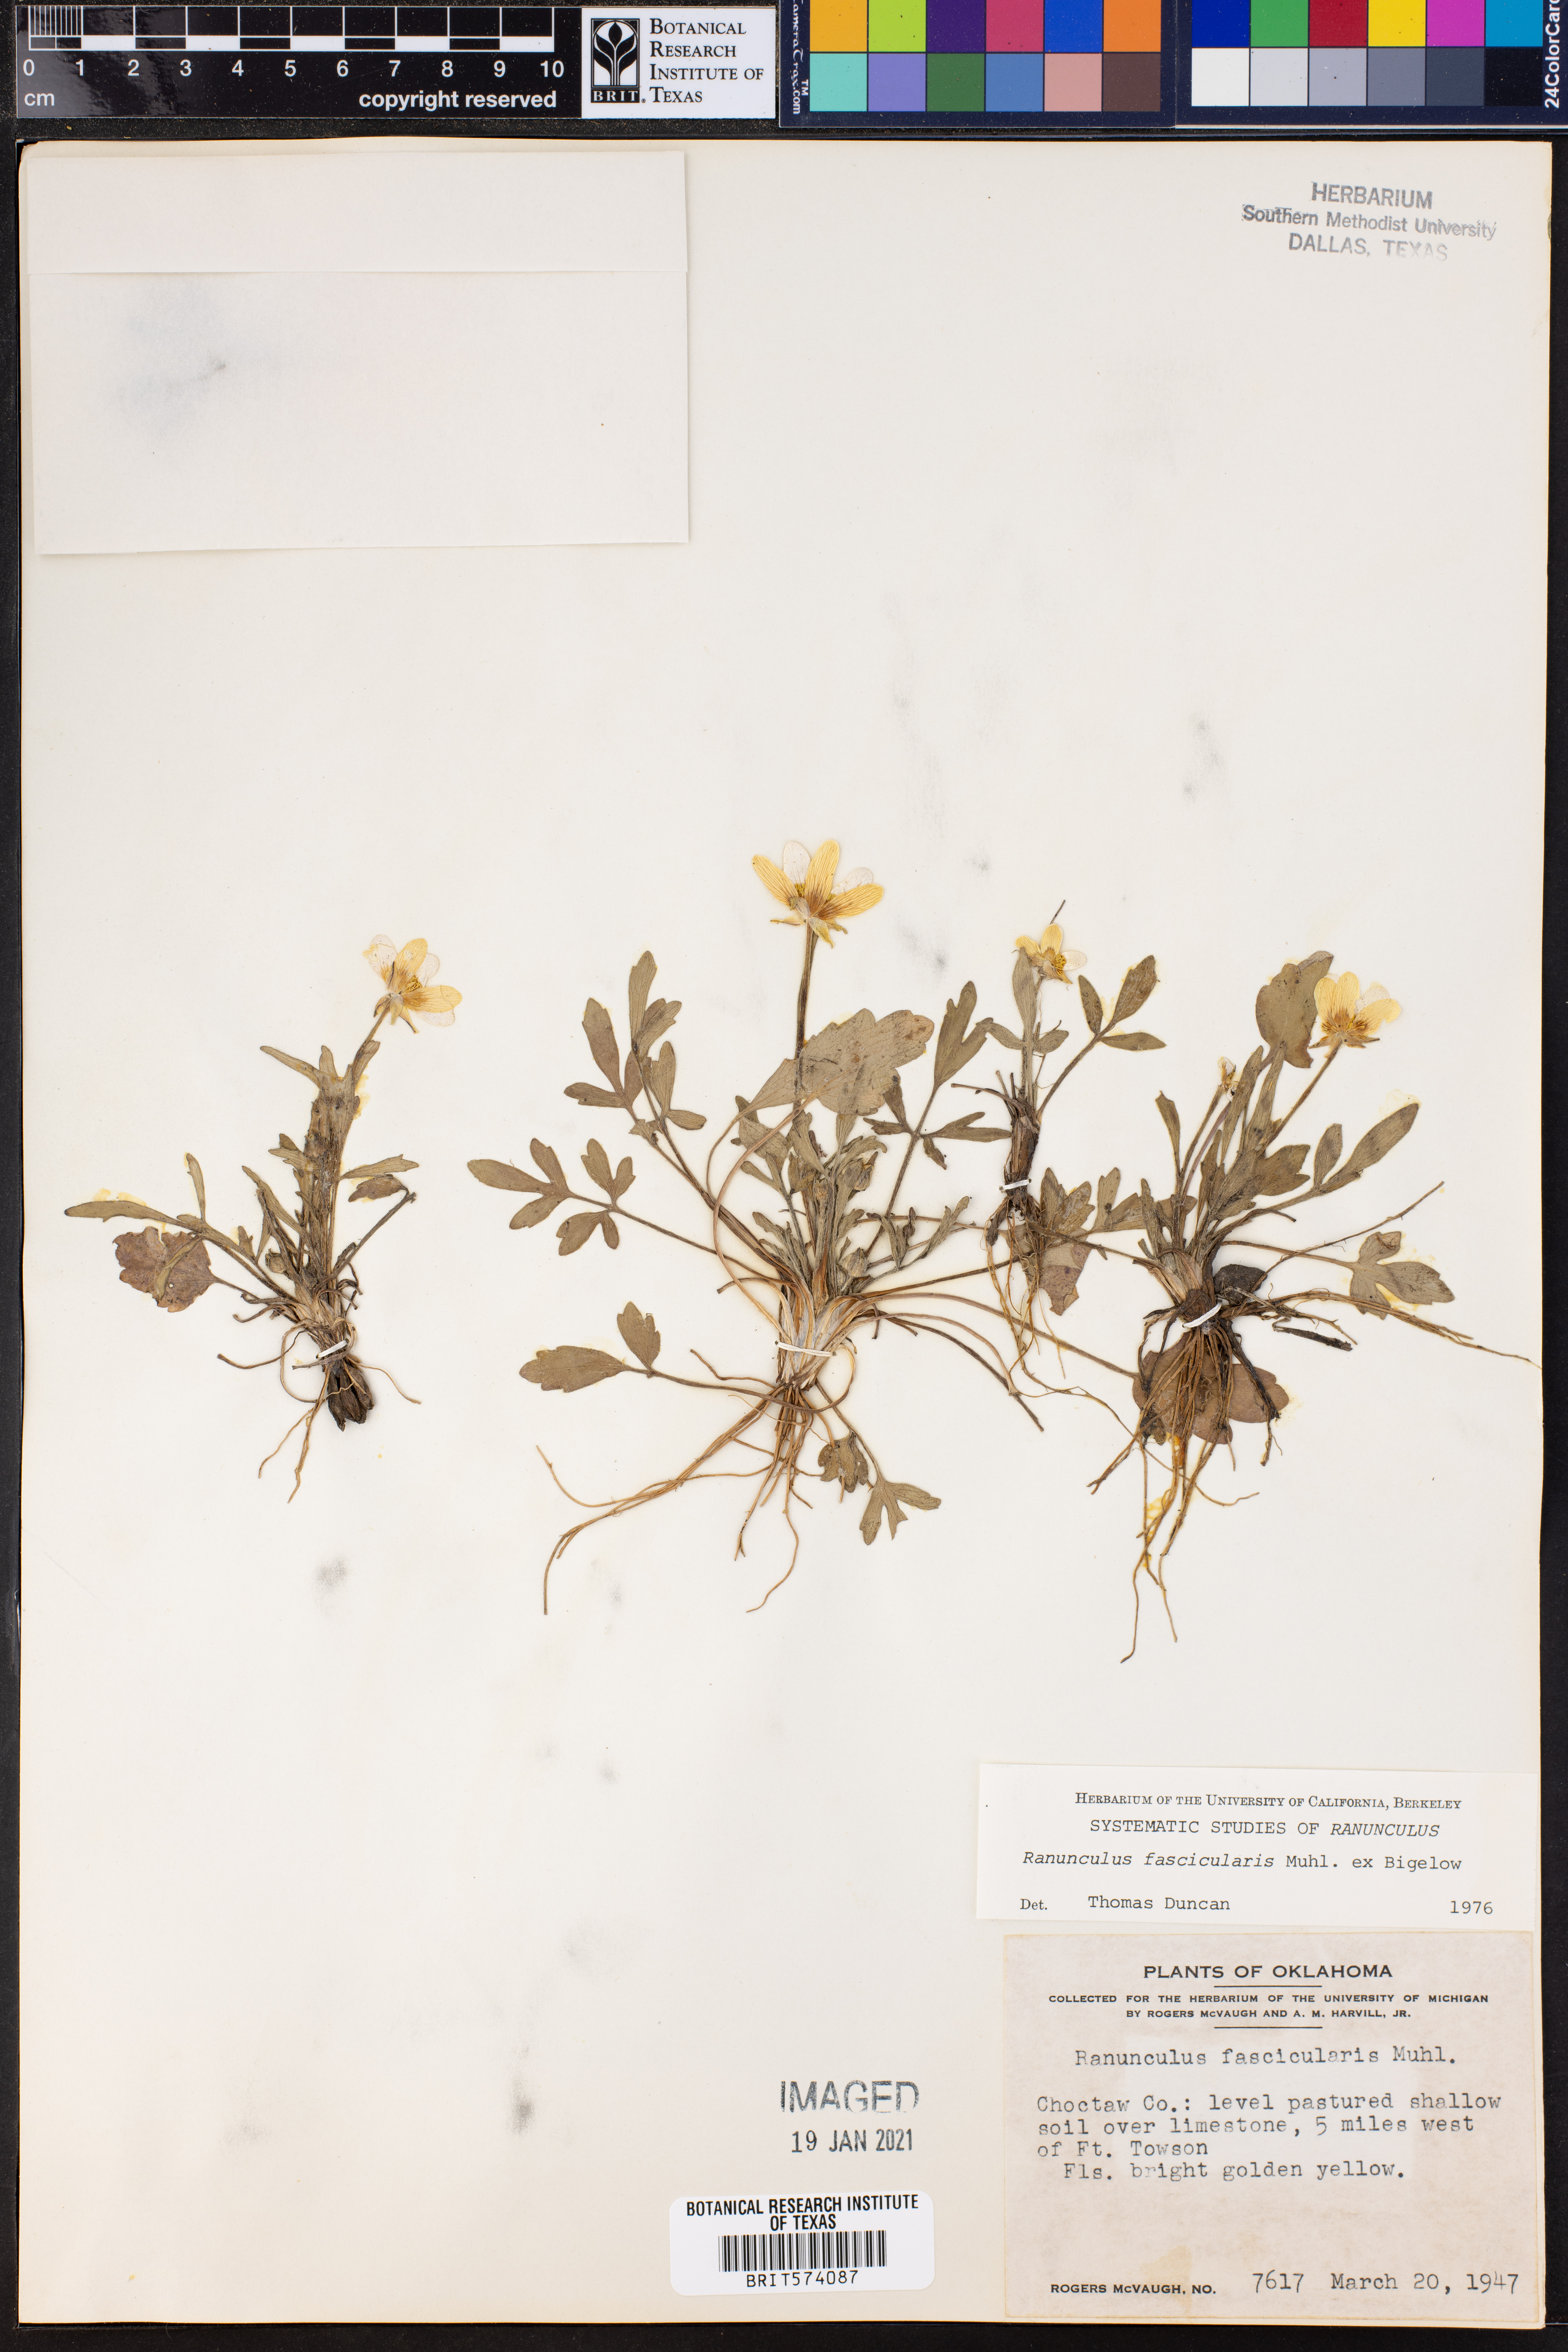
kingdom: Plantae
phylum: Tracheophyta
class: Magnoliopsida
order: Ranunculales
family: Ranunculaceae
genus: Ranunculus
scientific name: Ranunculus fascicularis
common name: Early buttercup
